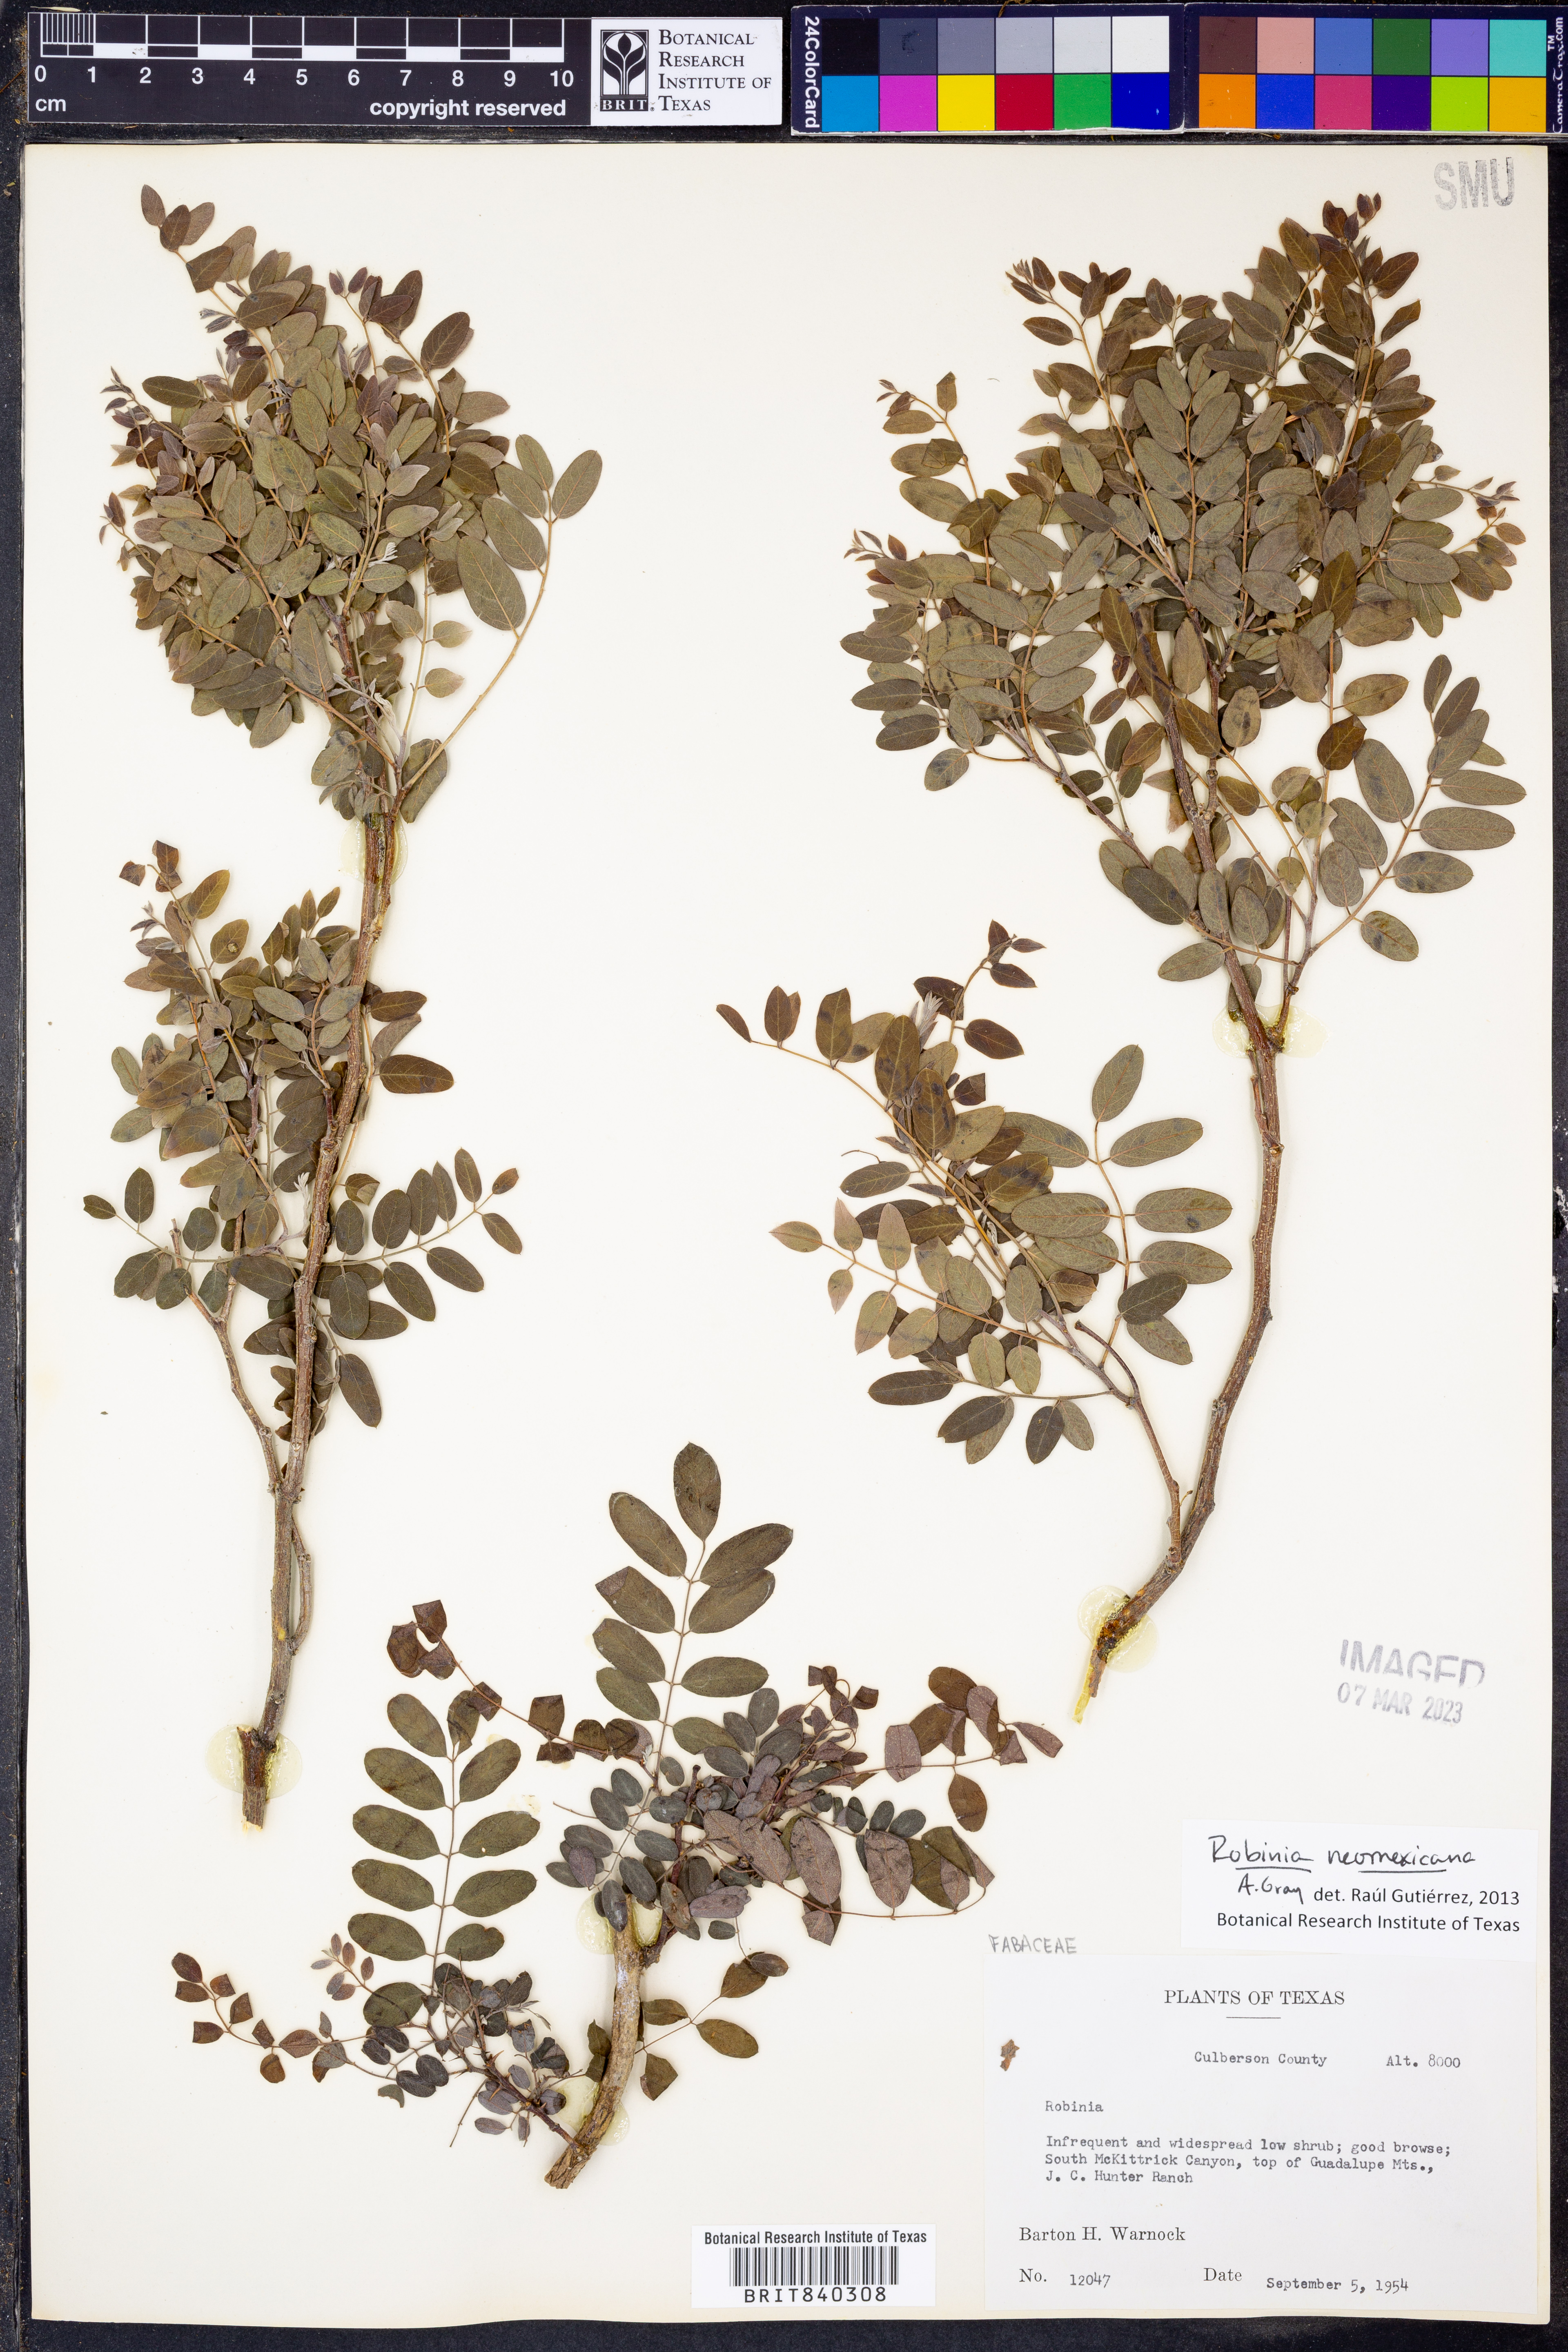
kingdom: Plantae
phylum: Tracheophyta
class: Magnoliopsida
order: Fabales
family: Fabaceae
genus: Robinia
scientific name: Robinia neomexicana
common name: New mexico locust
